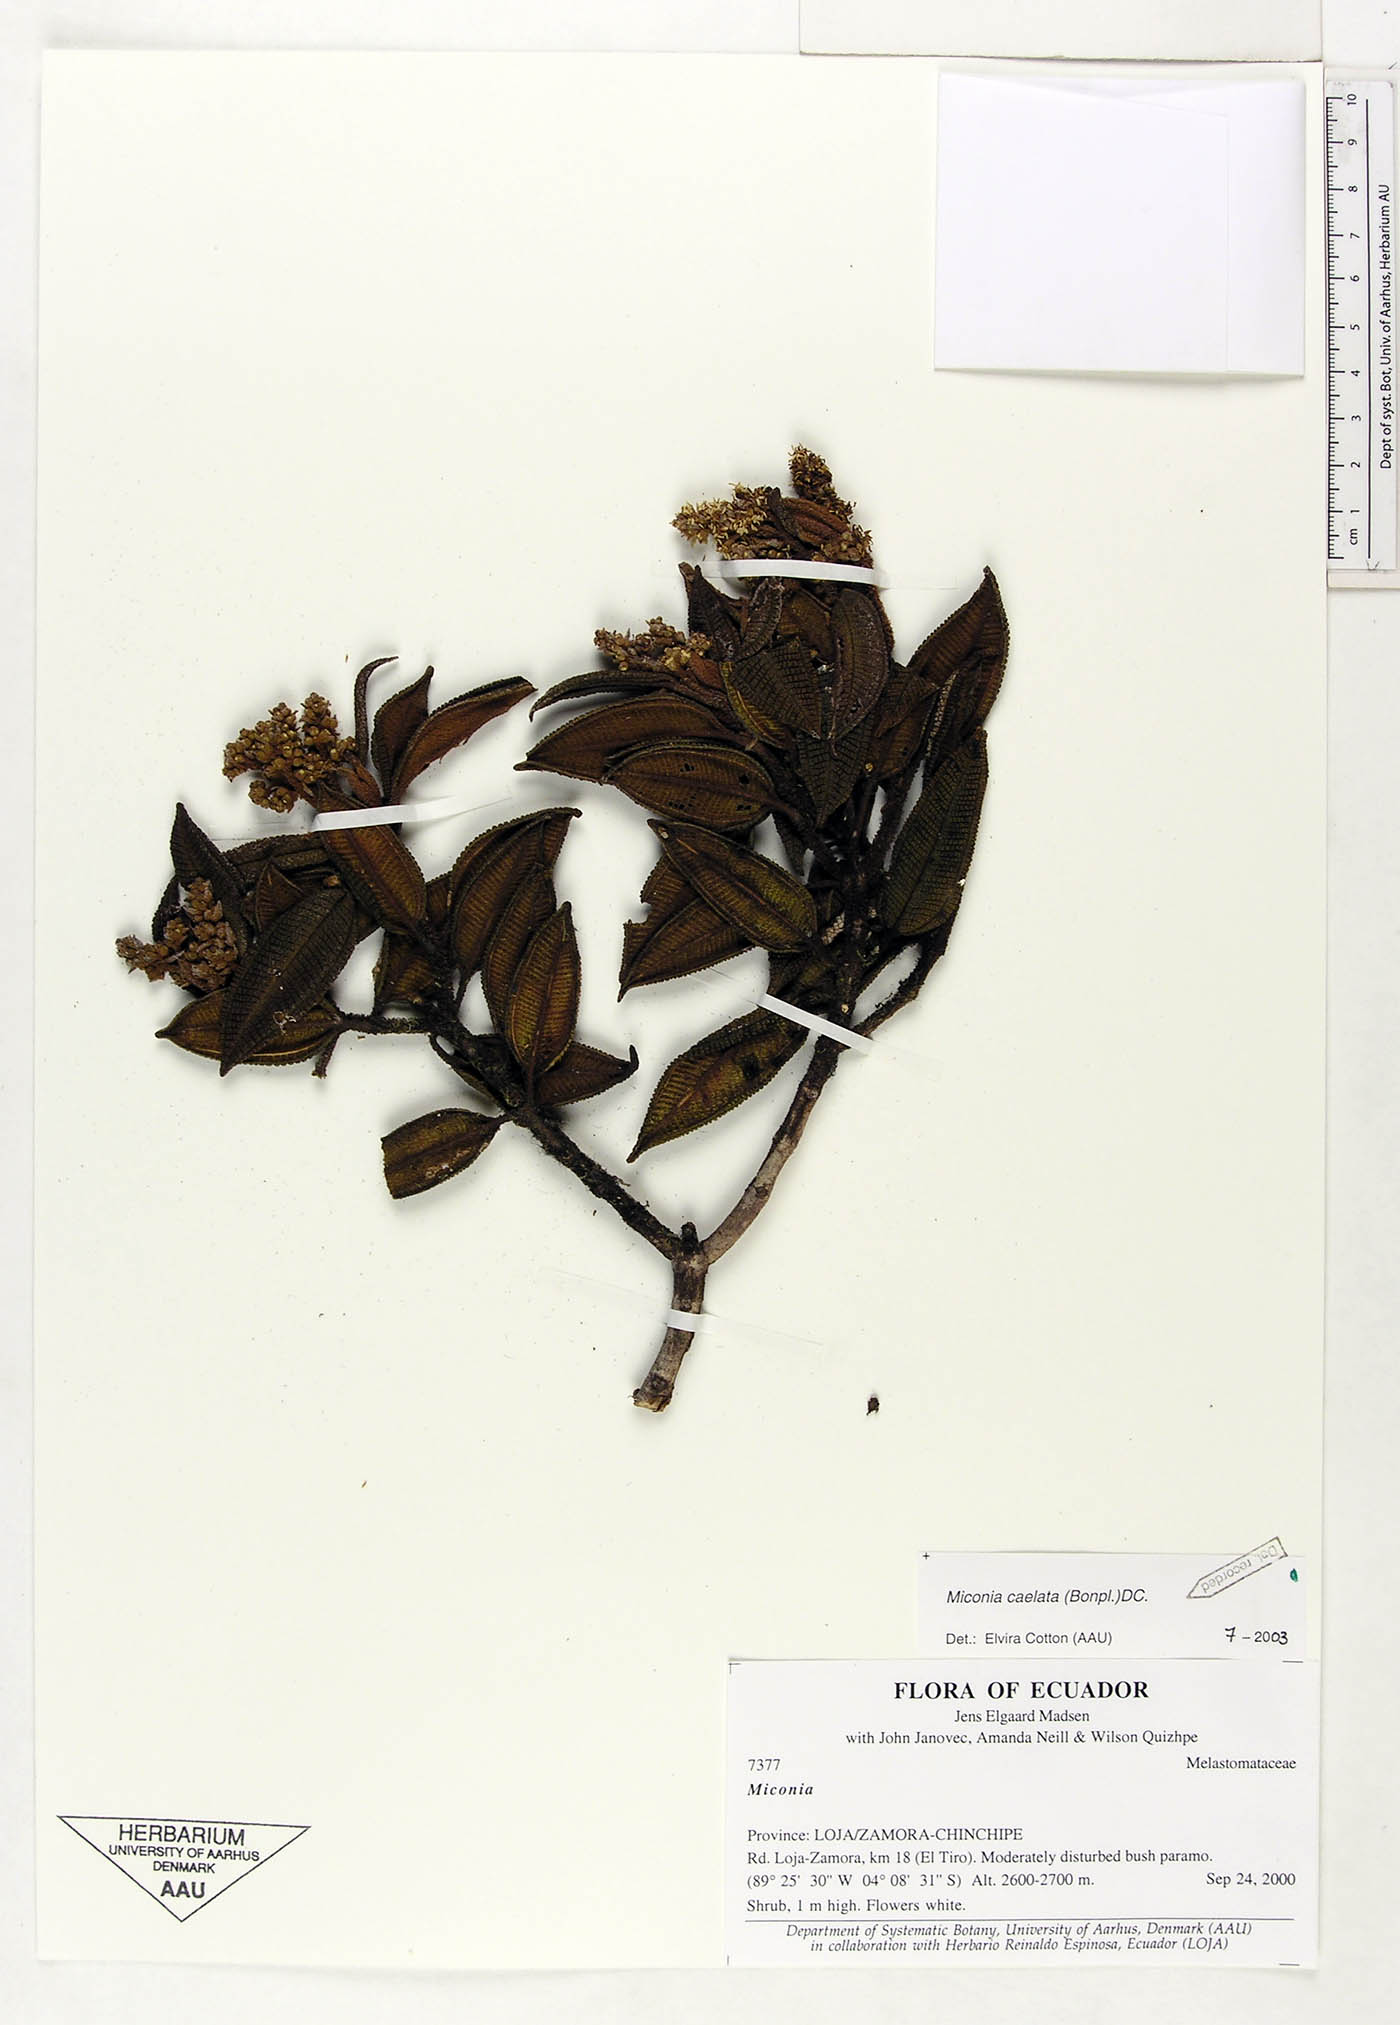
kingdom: Plantae
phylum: Tracheophyta
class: Magnoliopsida
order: Myrtales
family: Melastomataceae
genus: Miconia
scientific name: Miconia caelata
